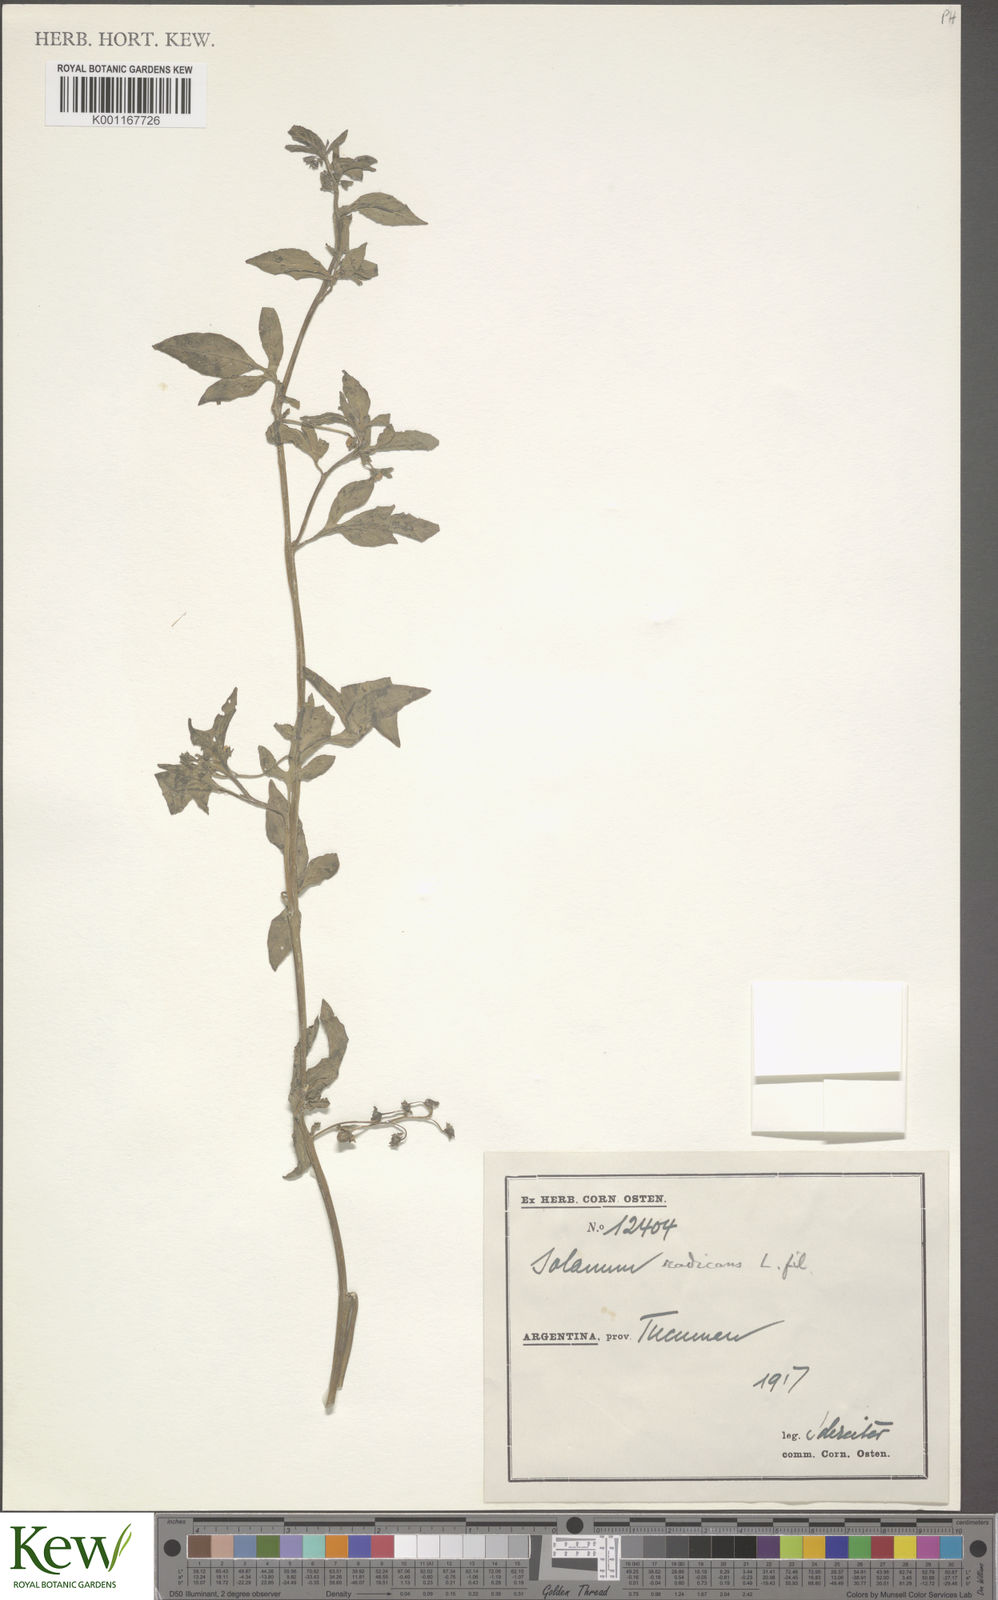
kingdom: Plantae
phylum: Tracheophyta
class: Magnoliopsida
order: Solanales
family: Solanaceae
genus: Solanum
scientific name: Solanum radicans
